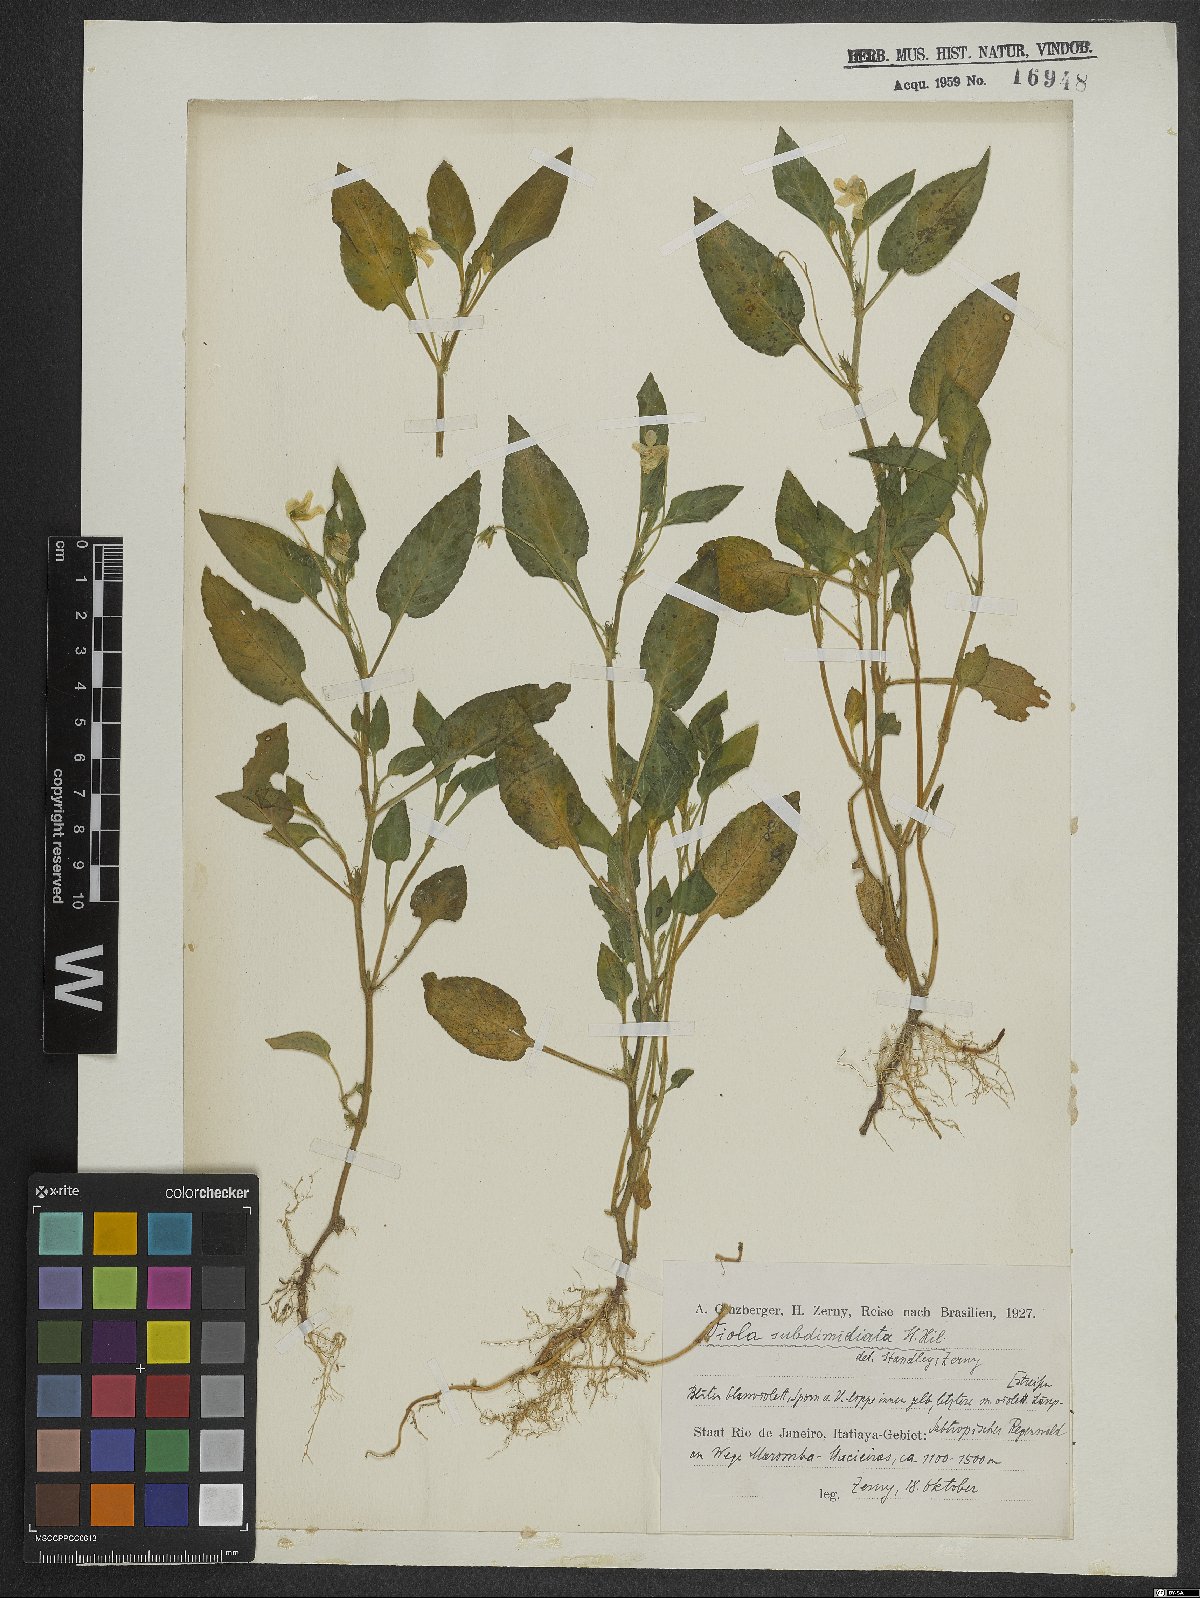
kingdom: Plantae
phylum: Tracheophyta
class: Magnoliopsida
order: Malpighiales
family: Violaceae
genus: Viola
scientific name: Viola subdimidiata
